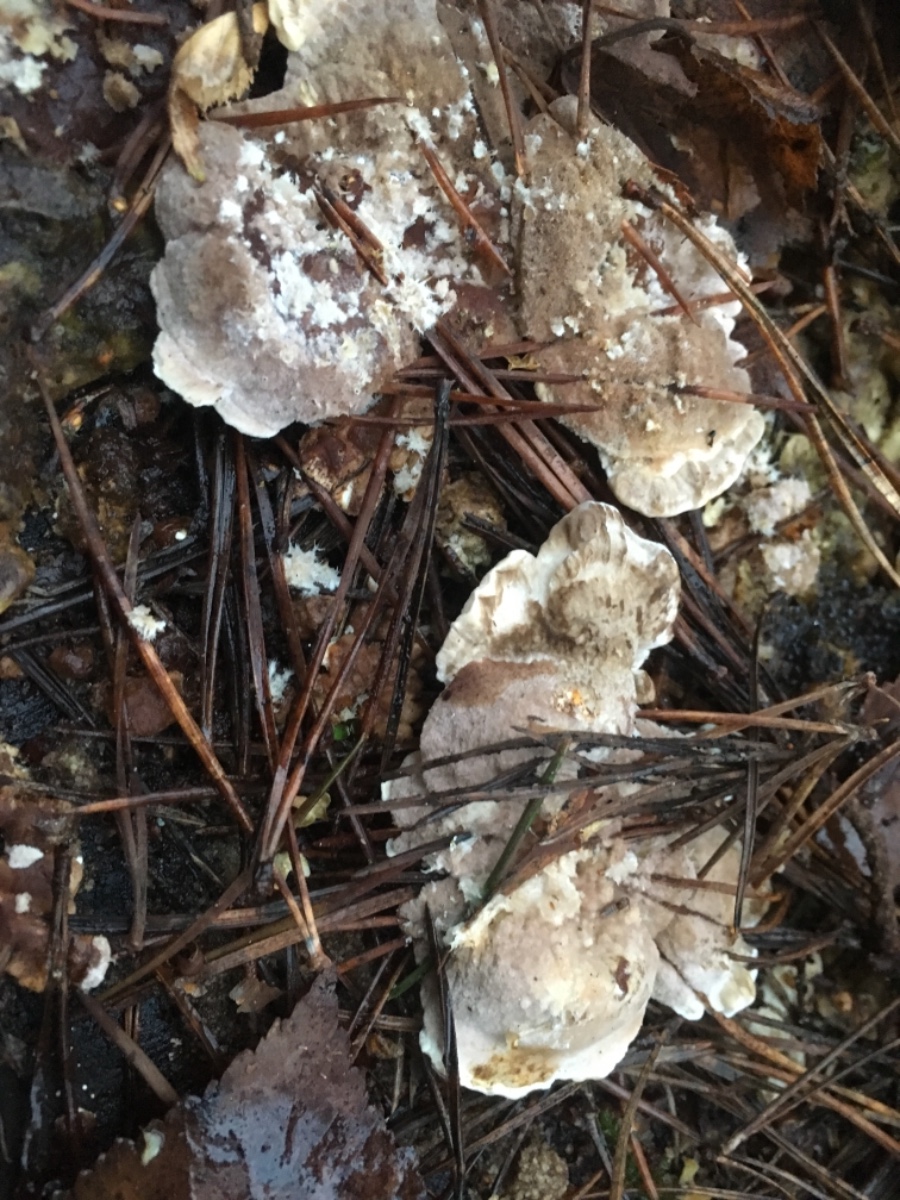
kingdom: Fungi
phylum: Basidiomycota
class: Agaricomycetes
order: Polyporales
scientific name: Polyporales
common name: poresvampordenen
